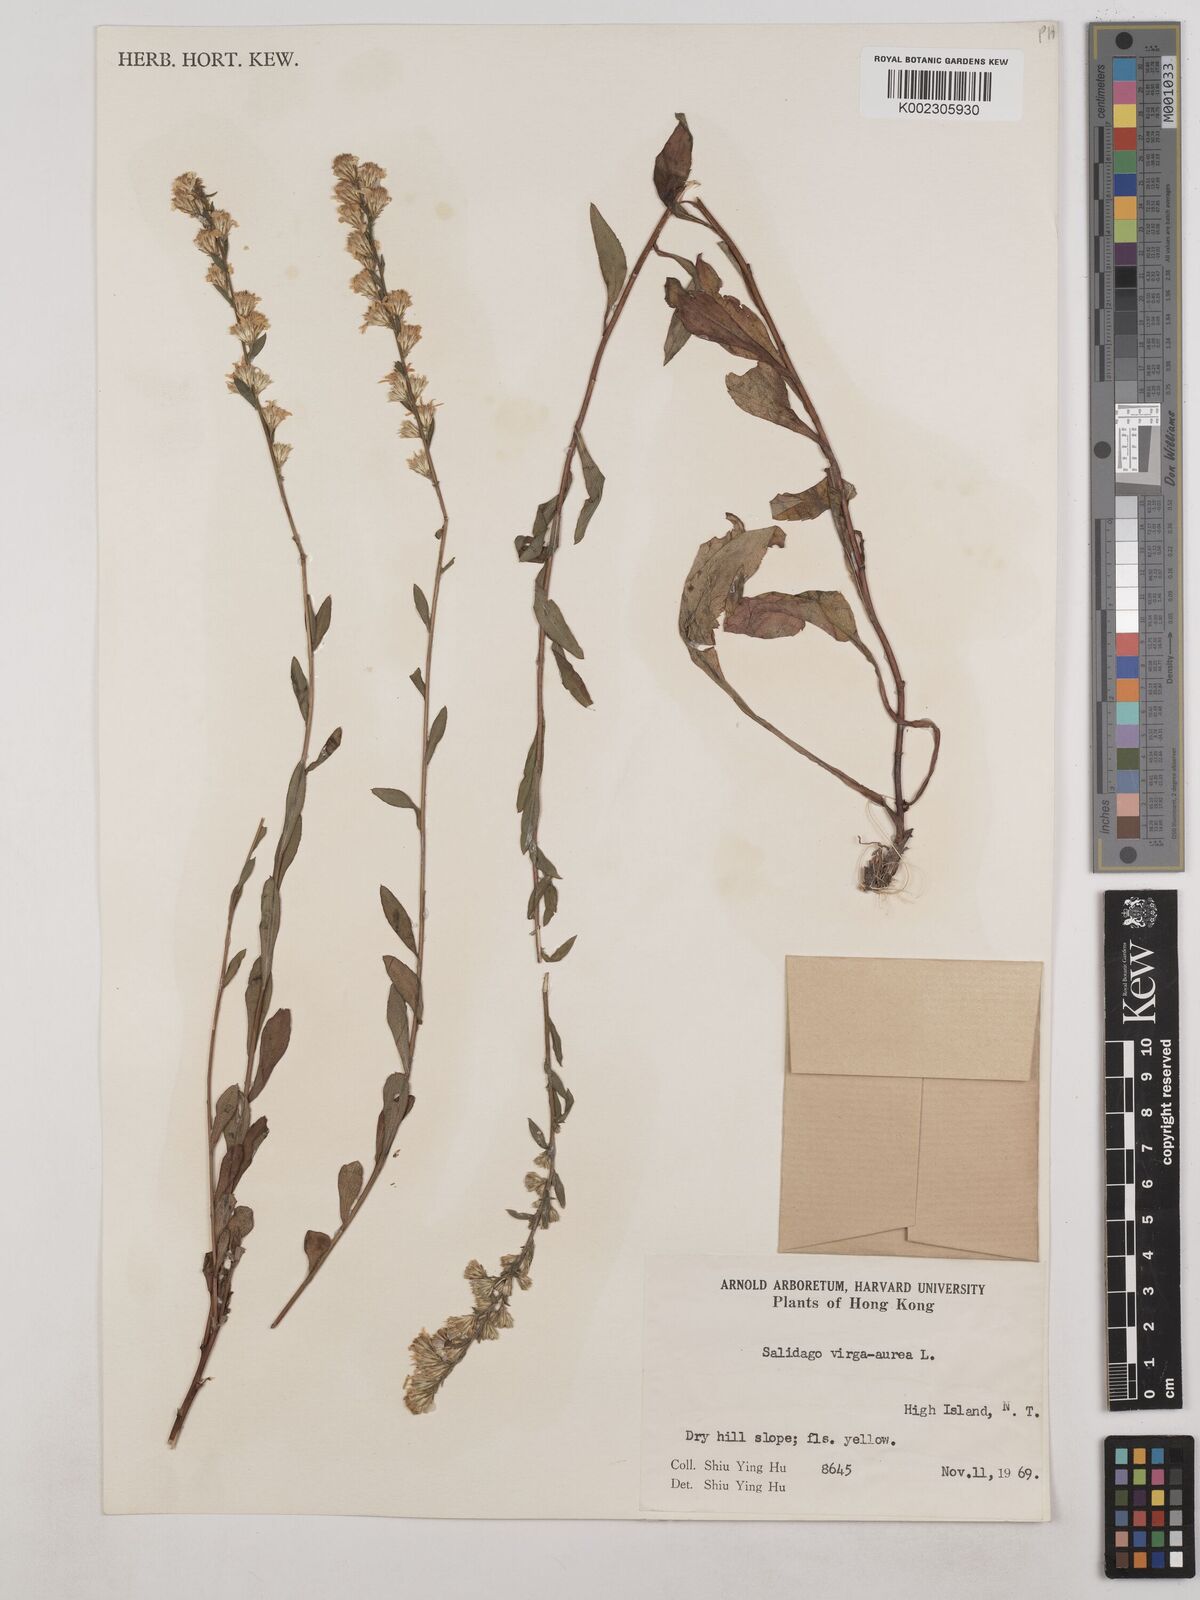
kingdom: Plantae
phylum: Tracheophyta
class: Magnoliopsida
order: Asterales
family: Asteraceae
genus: Solidago
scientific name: Solidago virgaurea
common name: Goldenrod
